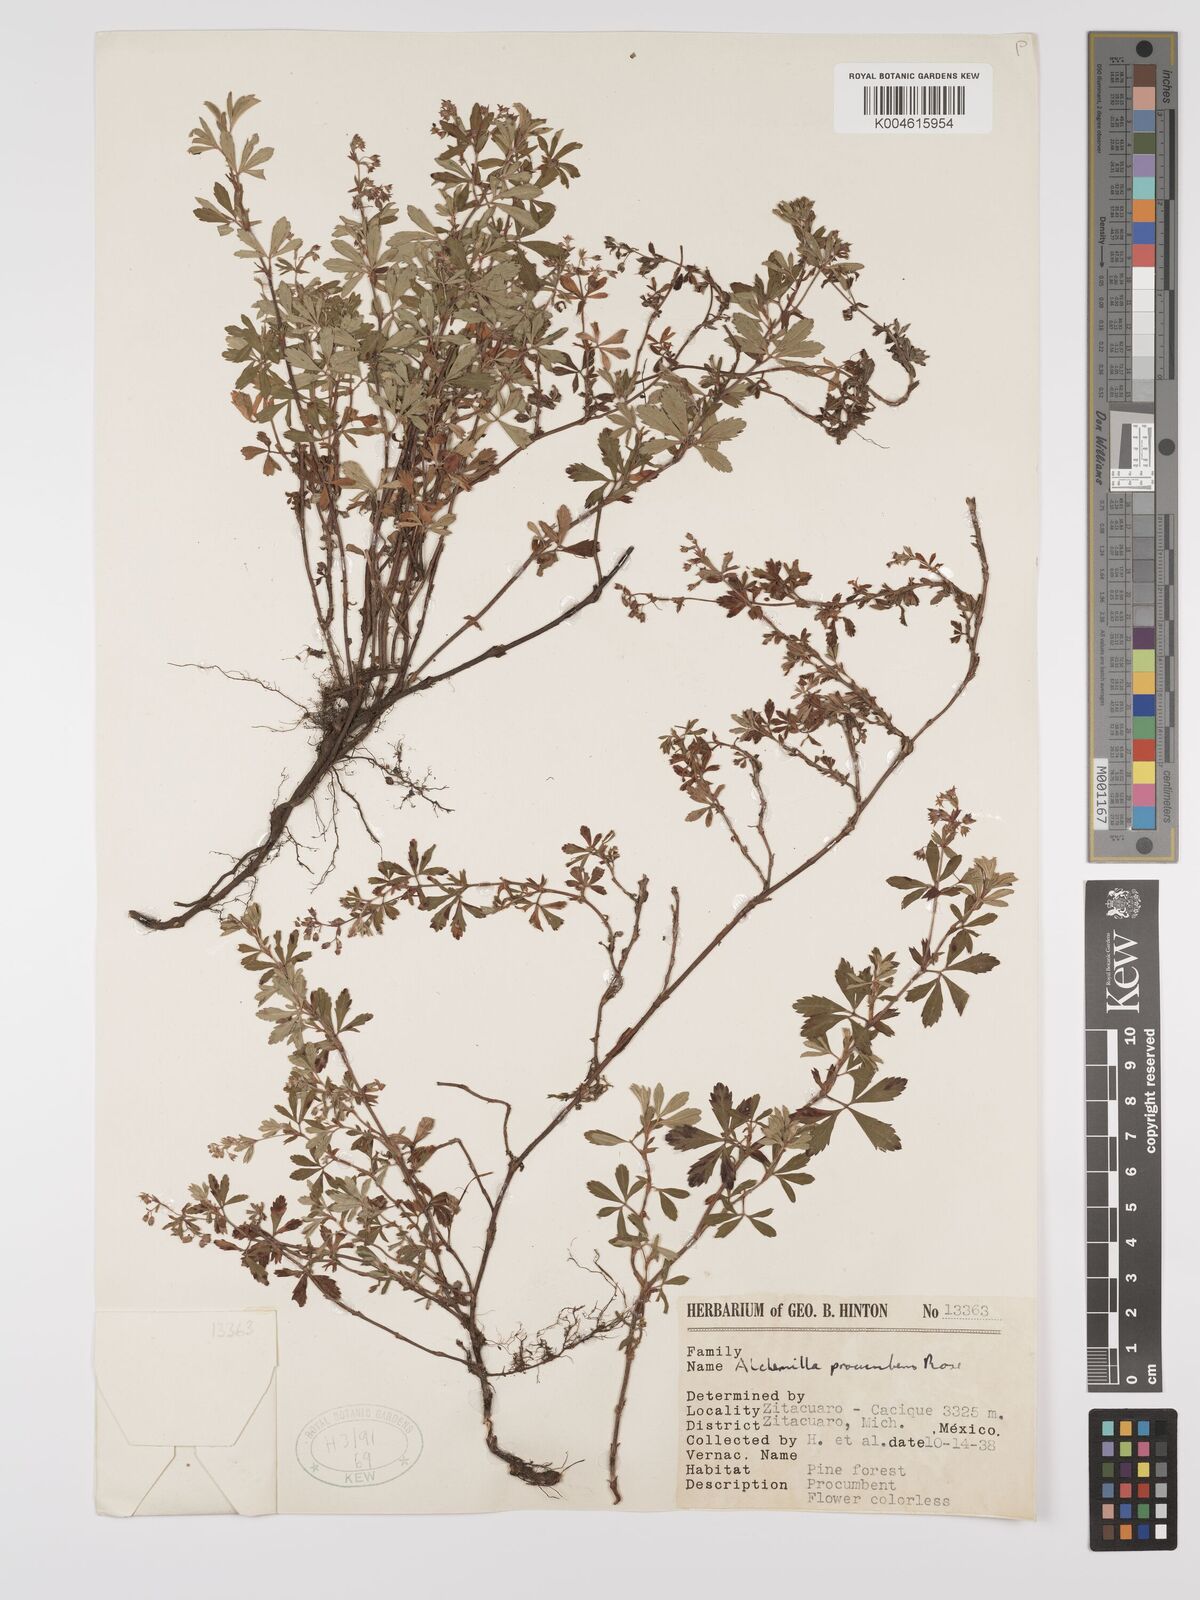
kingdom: Plantae
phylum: Tracheophyta
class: Magnoliopsida
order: Rosales
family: Rosaceae
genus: Lachemilla
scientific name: Lachemilla procumbens
